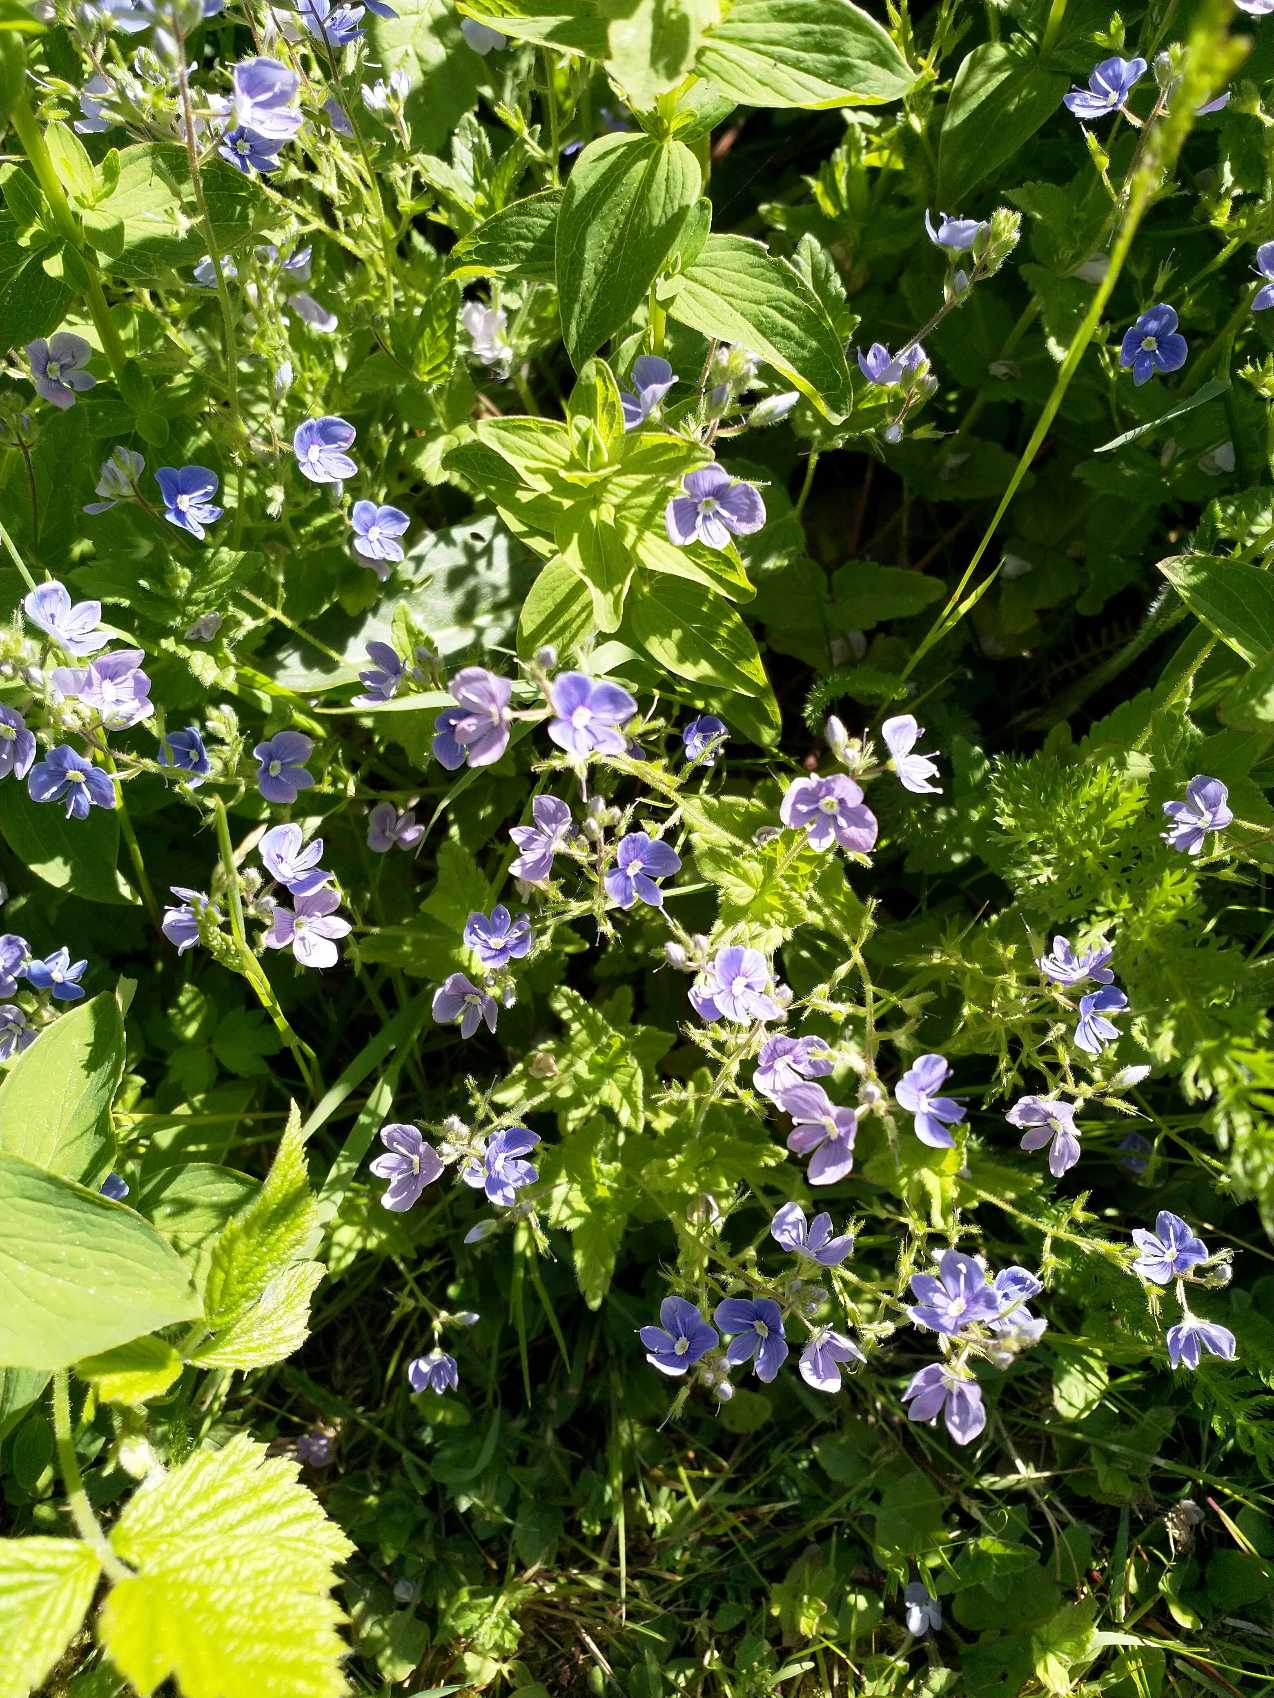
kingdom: Plantae
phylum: Tracheophyta
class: Magnoliopsida
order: Lamiales
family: Plantaginaceae
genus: Veronica
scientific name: Veronica chamaedrys
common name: Tveskægget ærenpris
